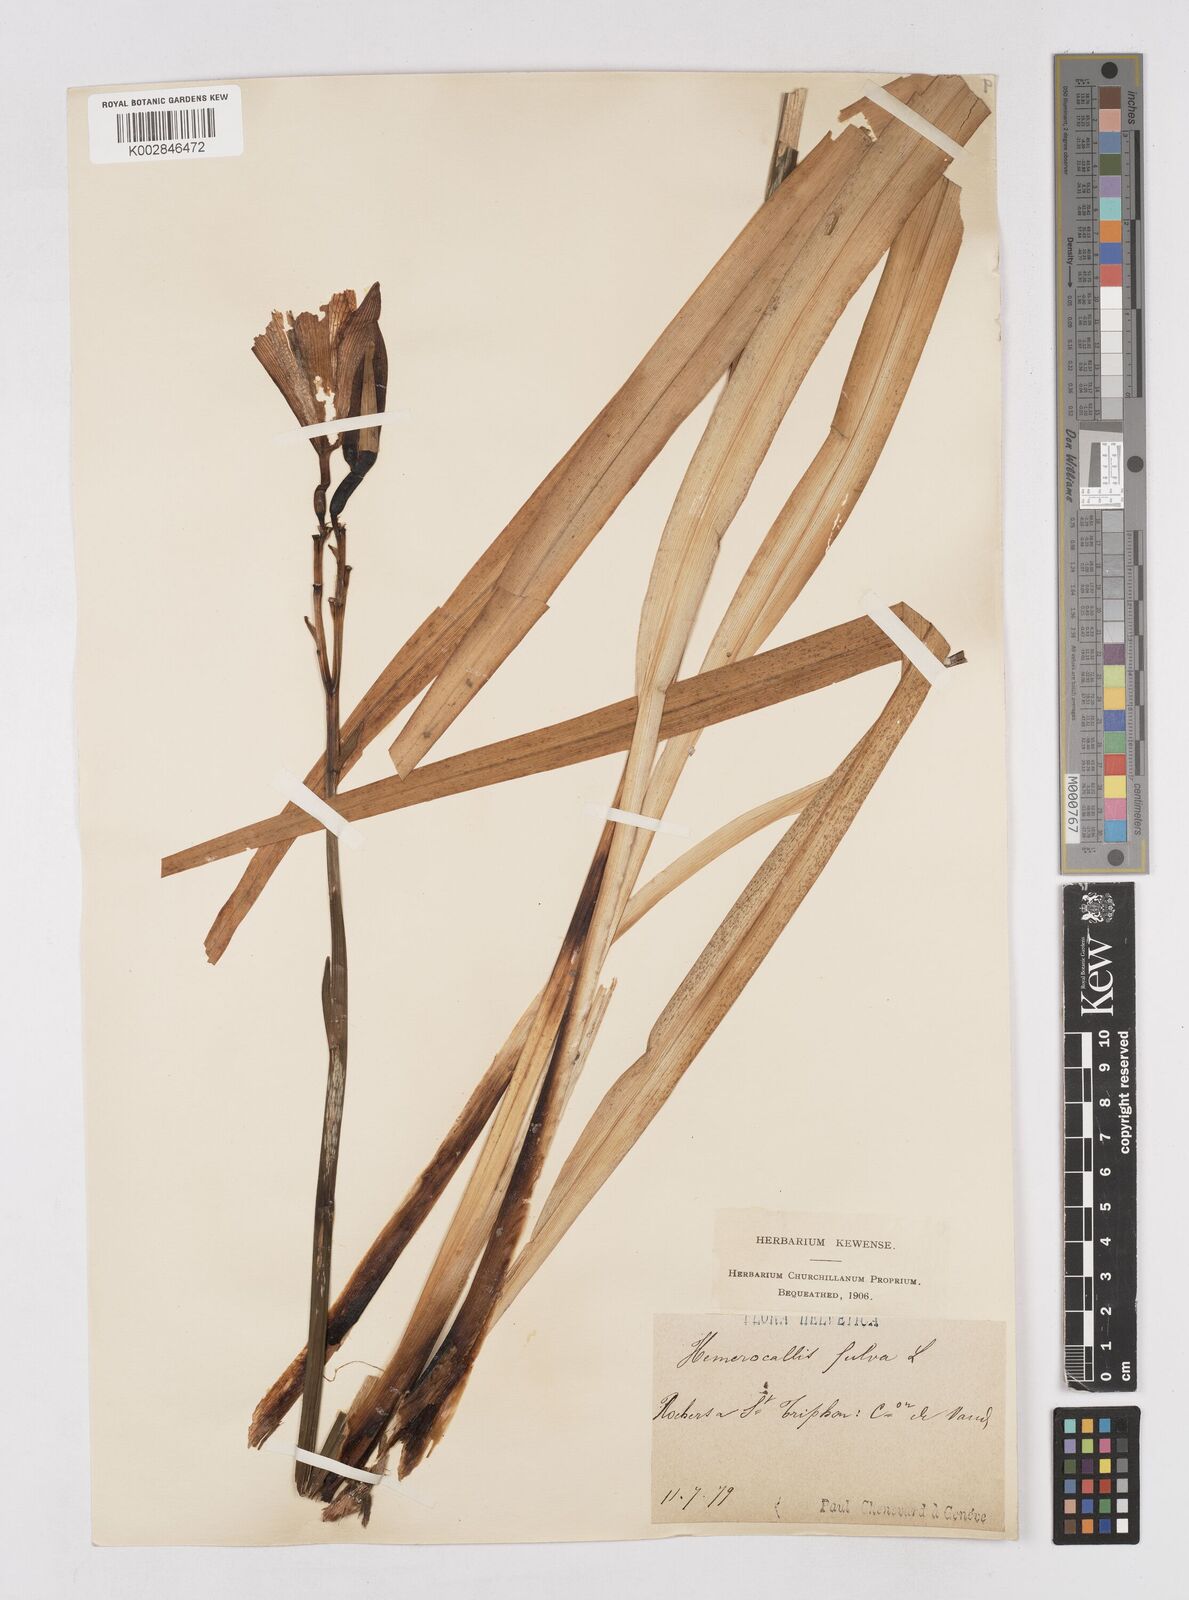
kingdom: Plantae
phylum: Tracheophyta
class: Liliopsida
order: Asparagales
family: Asphodelaceae
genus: Hemerocallis
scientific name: Hemerocallis fulva
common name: Orange day-lily
